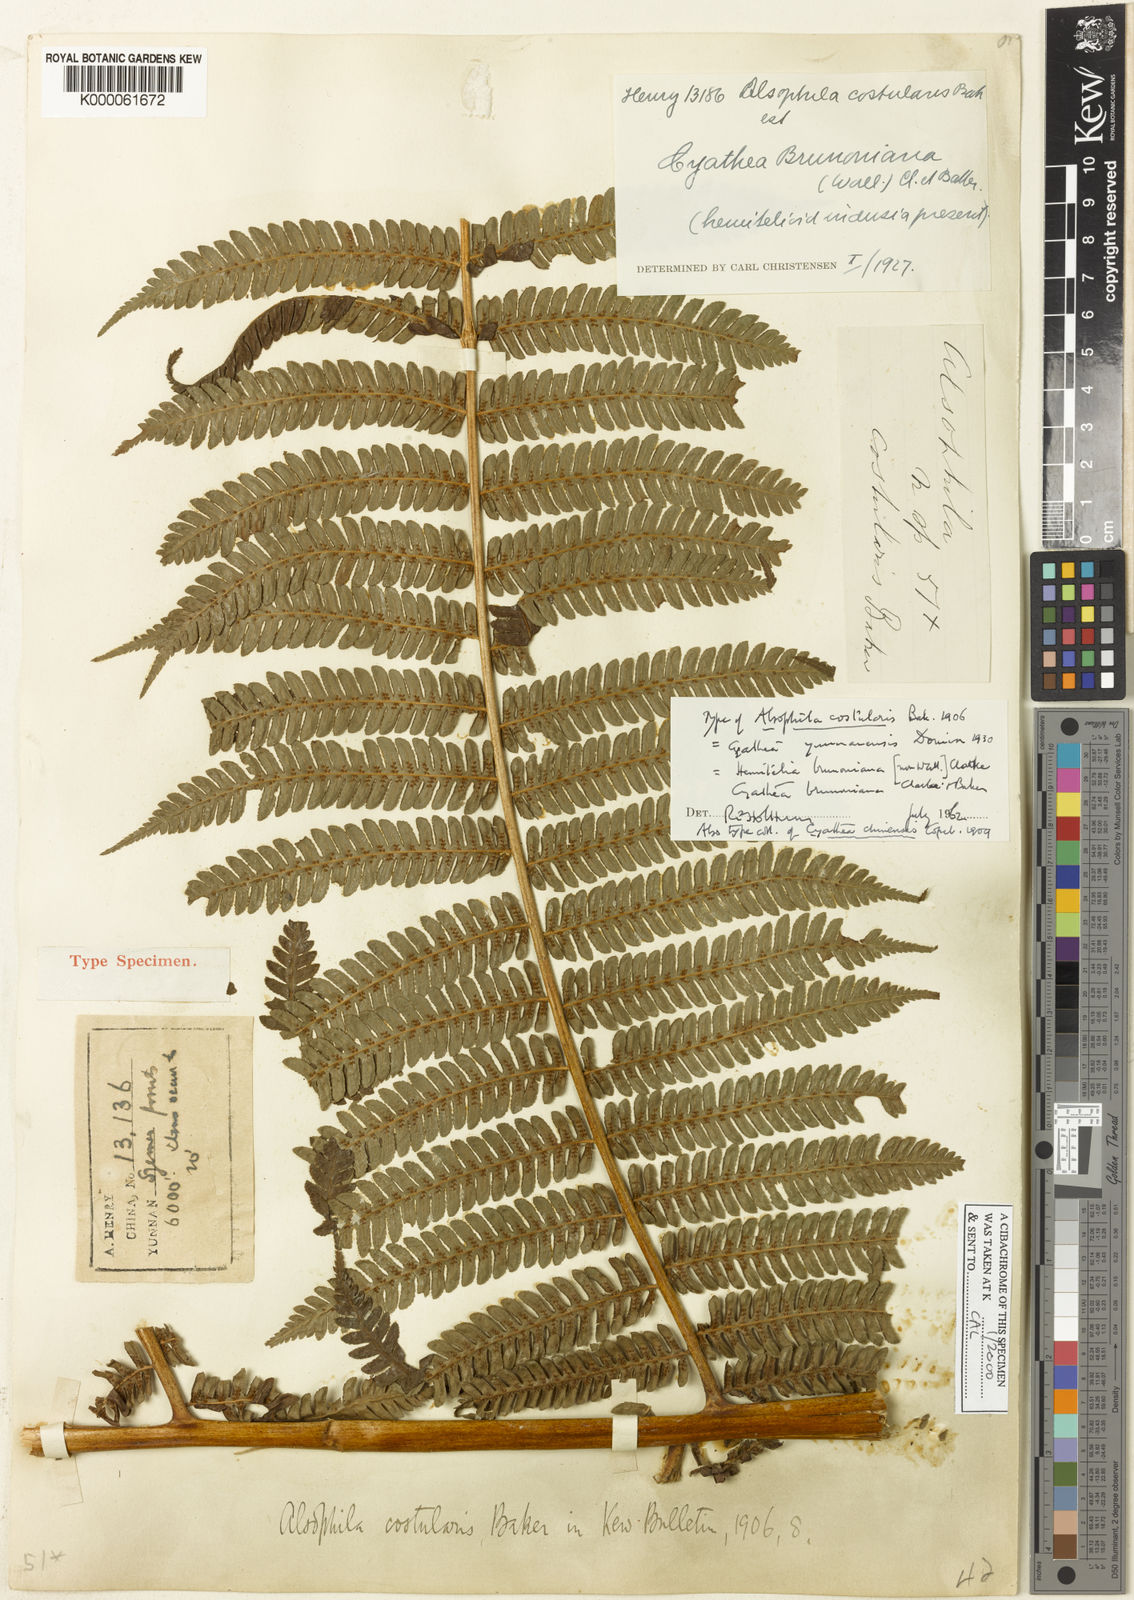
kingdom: Plantae
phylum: Tracheophyta
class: Polypodiopsida
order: Cyatheales
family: Cyatheaceae
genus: Sphaeropteris
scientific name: Sphaeropteris chinensis
